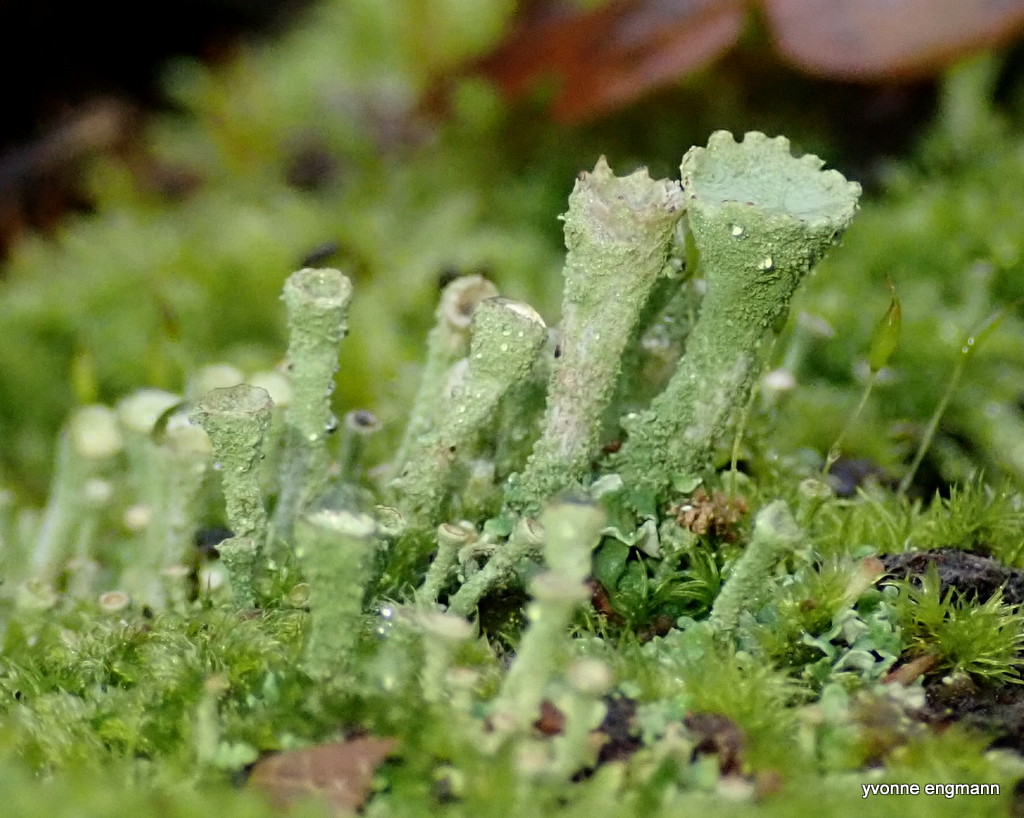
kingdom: Fungi
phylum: Ascomycota
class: Lecanoromycetes
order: Lecanorales
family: Cladoniaceae
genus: Cladonia
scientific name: Cladonia
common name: brungrøn bægerlav
